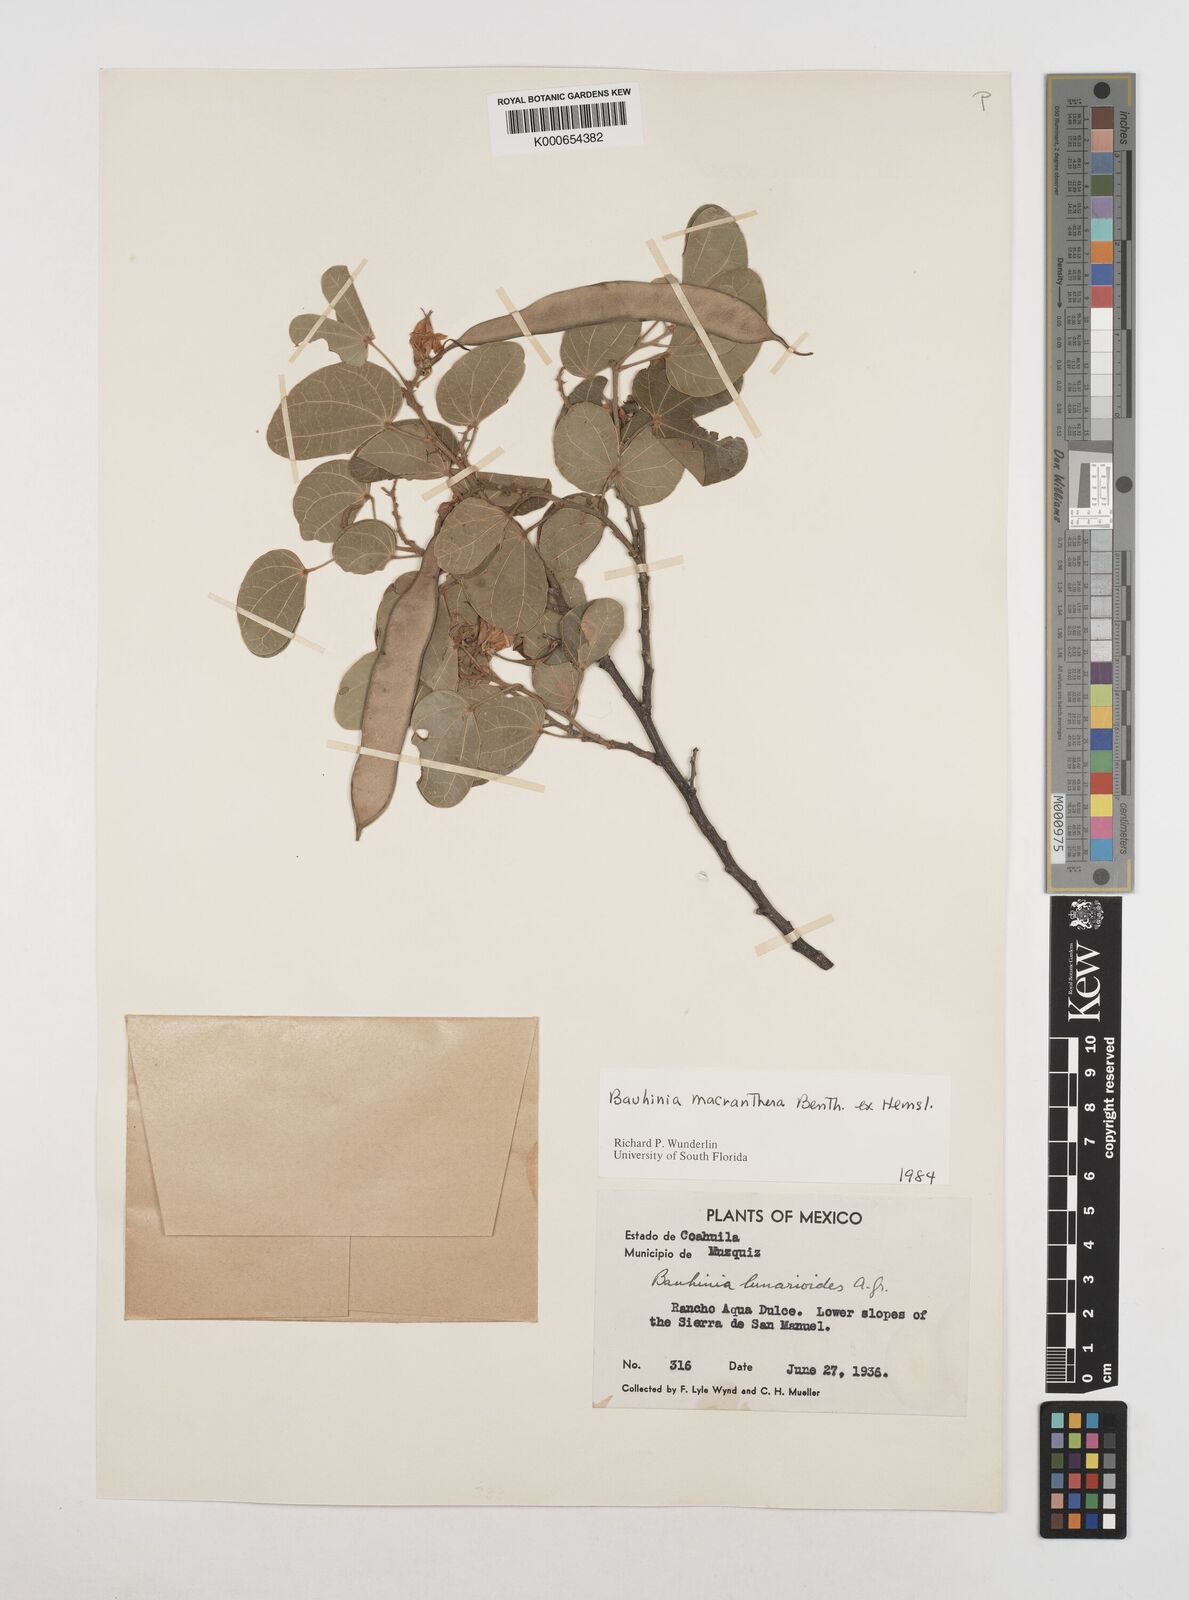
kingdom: Plantae
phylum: Tracheophyta
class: Magnoliopsida
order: Fabales
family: Fabaceae
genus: Bauhinia
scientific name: Bauhinia macranthera
